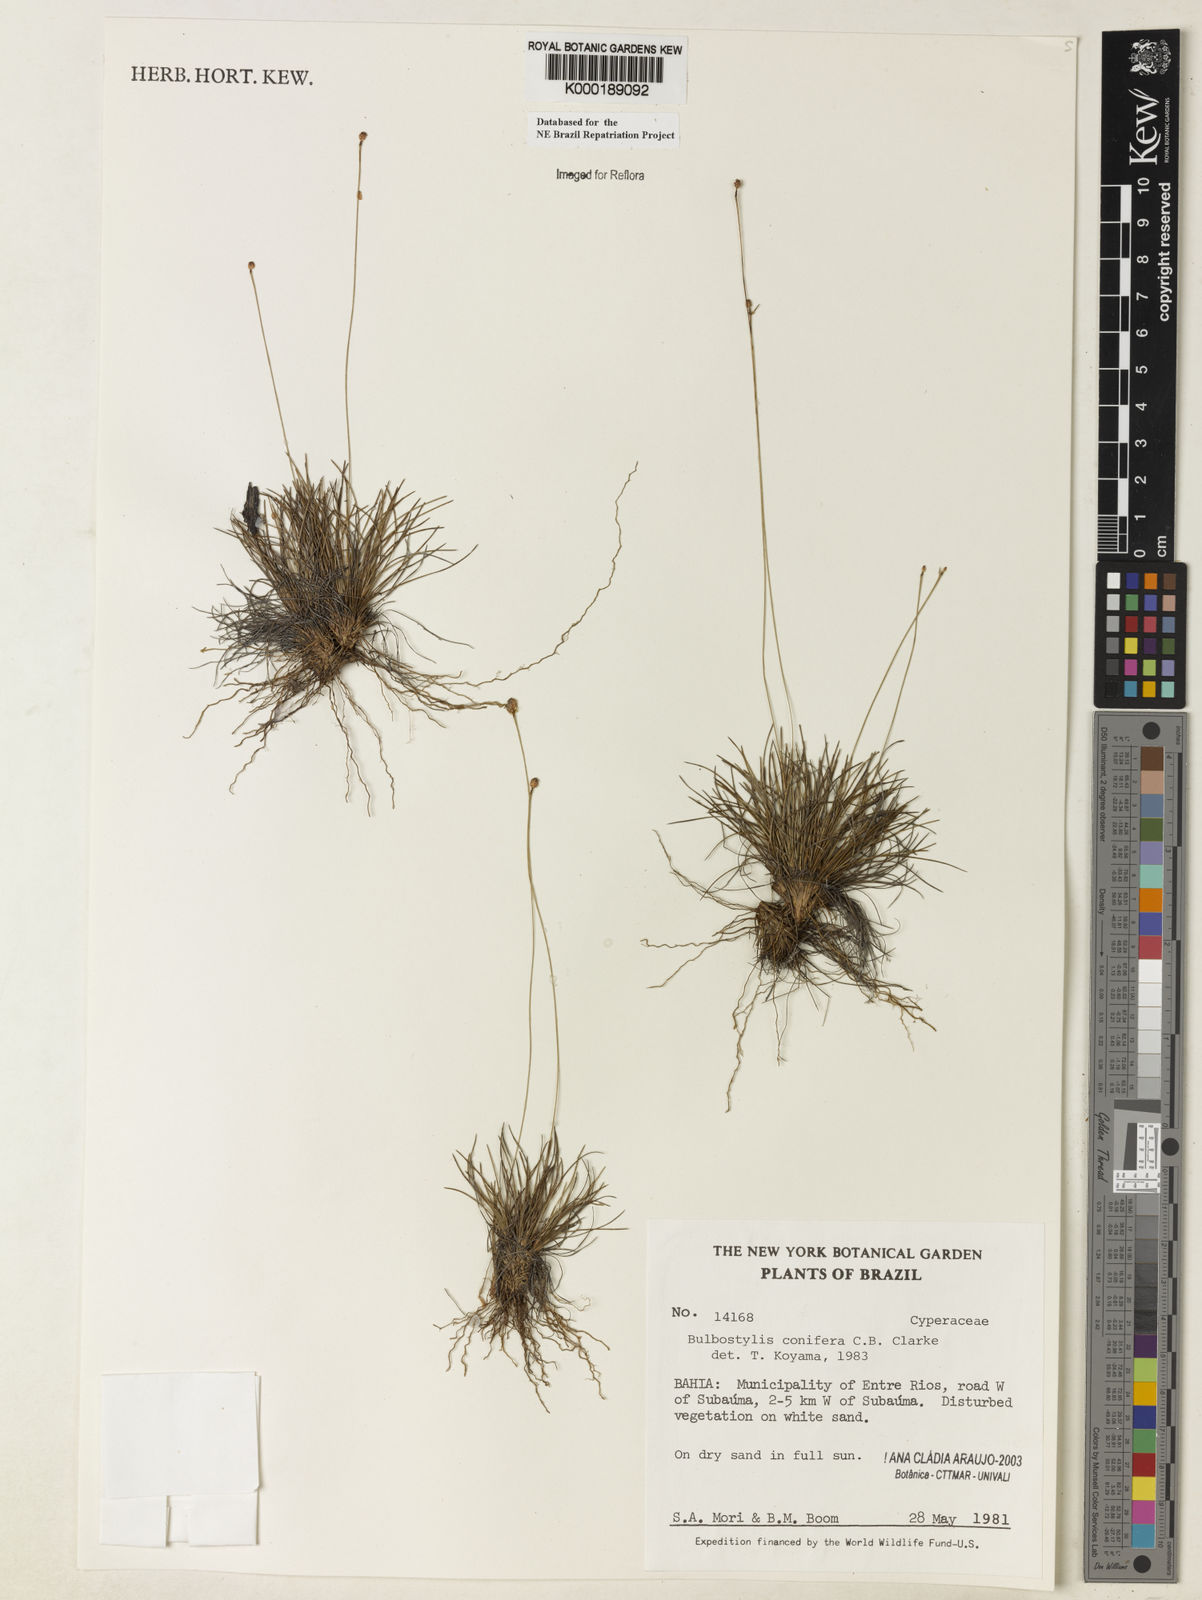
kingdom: Plantae
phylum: Tracheophyta
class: Liliopsida
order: Poales
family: Cyperaceae
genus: Bulbostylis
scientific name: Bulbostylis conifera
